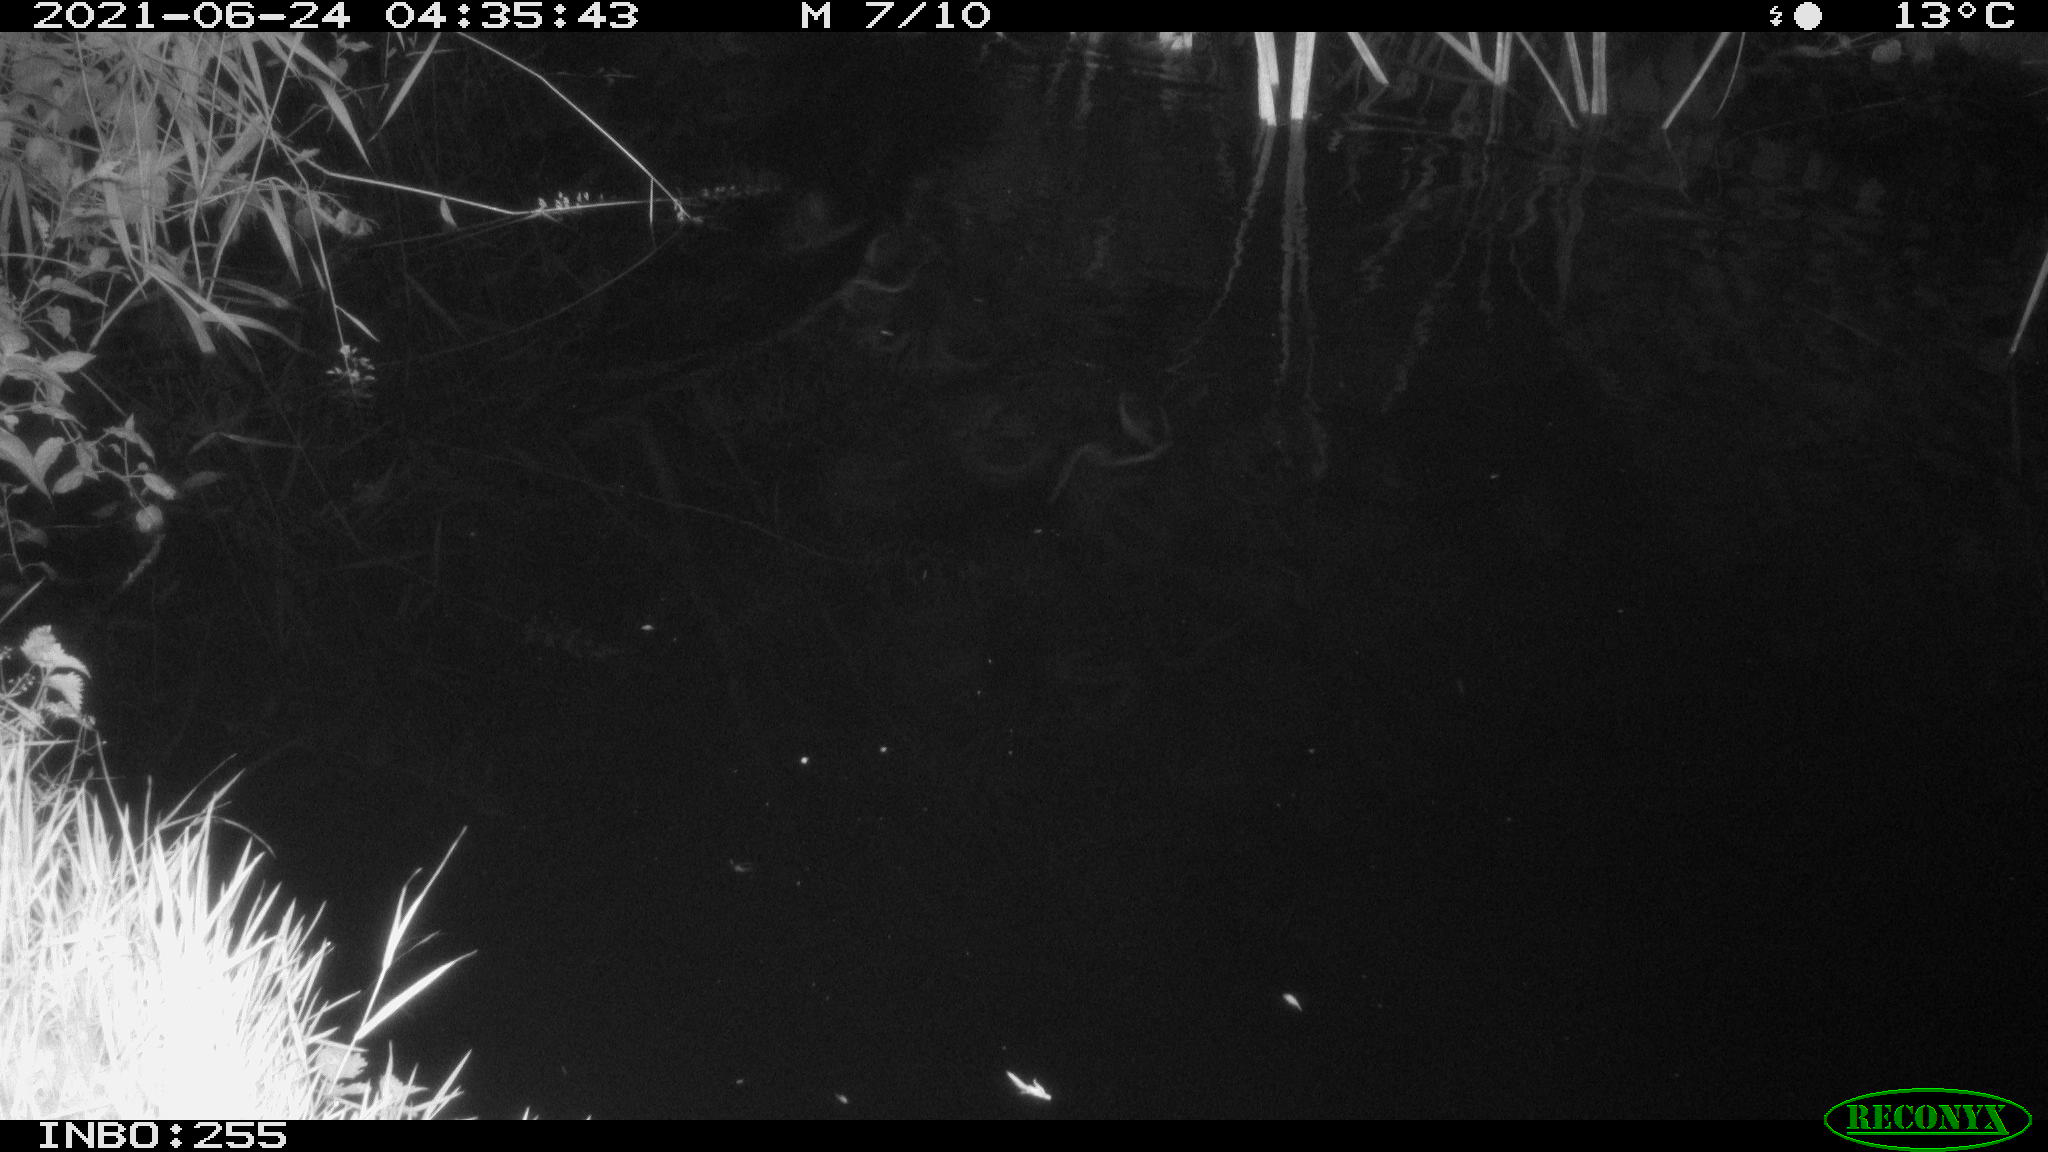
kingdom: Animalia
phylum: Chordata
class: Aves
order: Anseriformes
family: Anatidae
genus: Anas
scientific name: Anas
